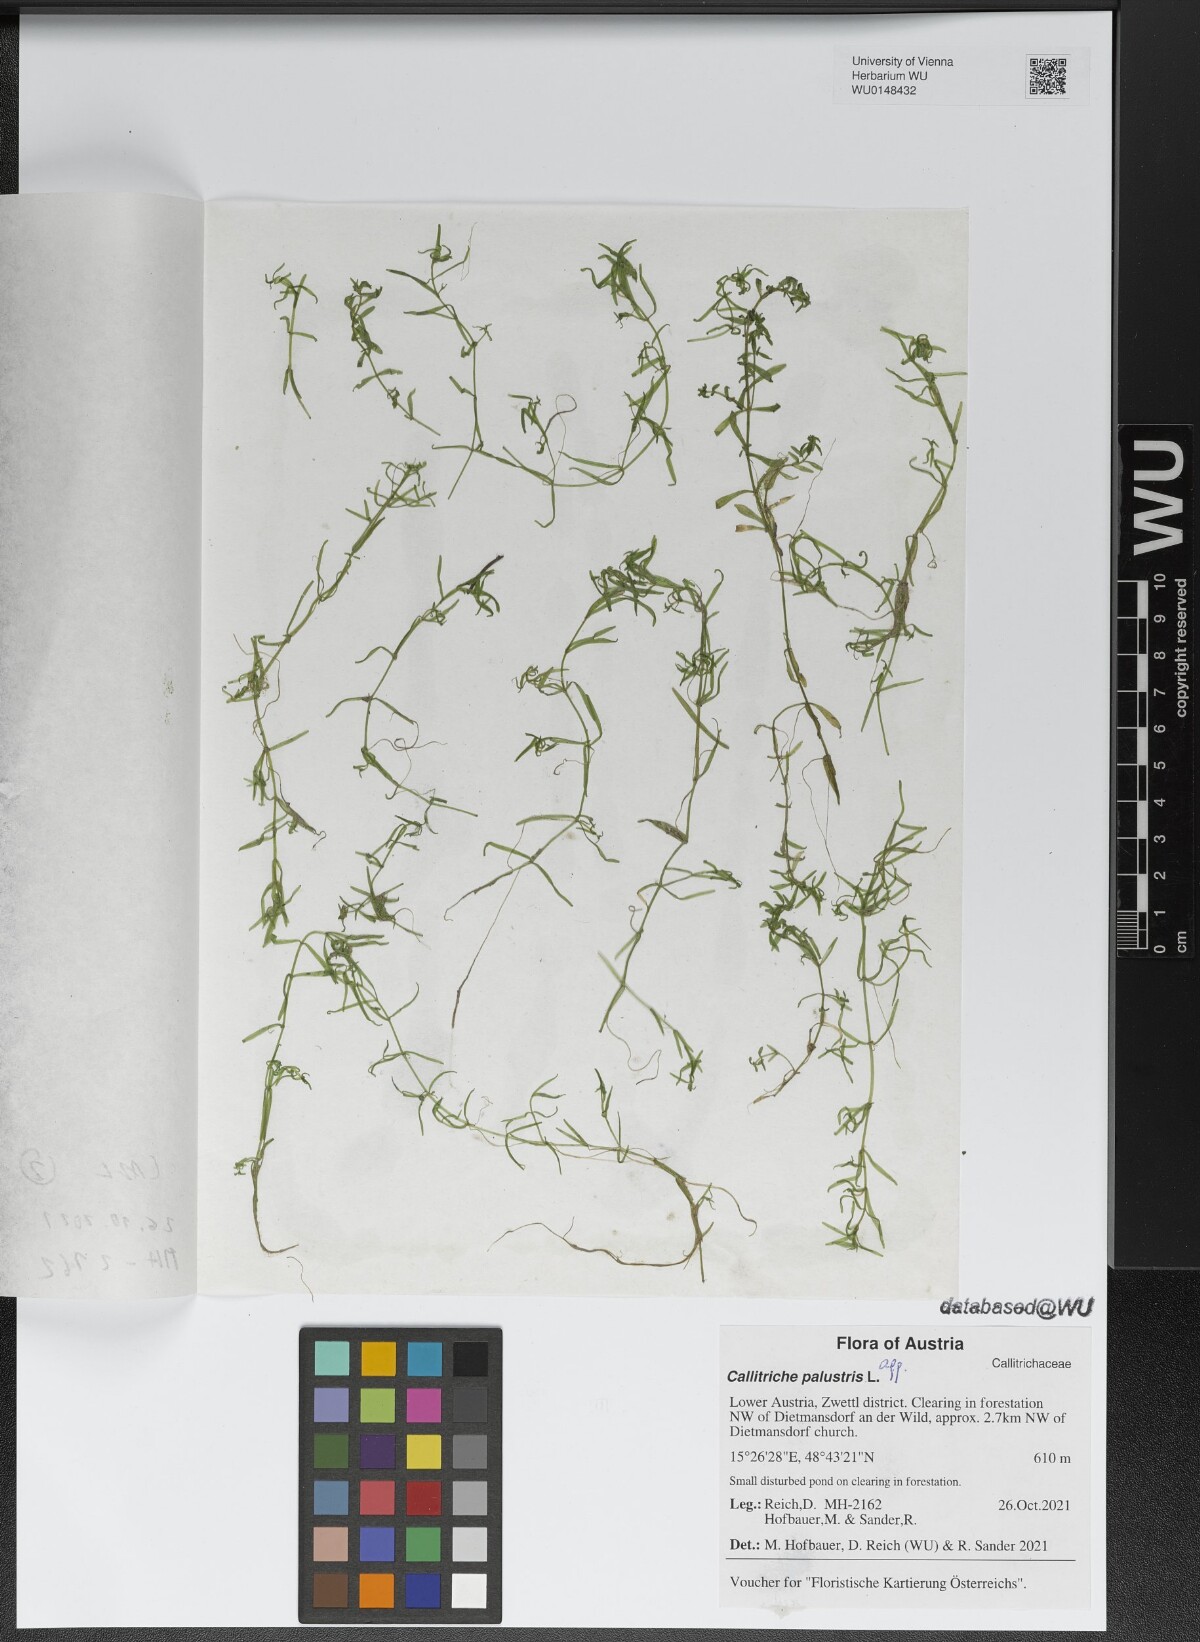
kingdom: Plantae
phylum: Tracheophyta
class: Magnoliopsida
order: Lamiales
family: Plantaginaceae
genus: Callitriche
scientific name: Callitriche palustris
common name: Spring water-starwort
